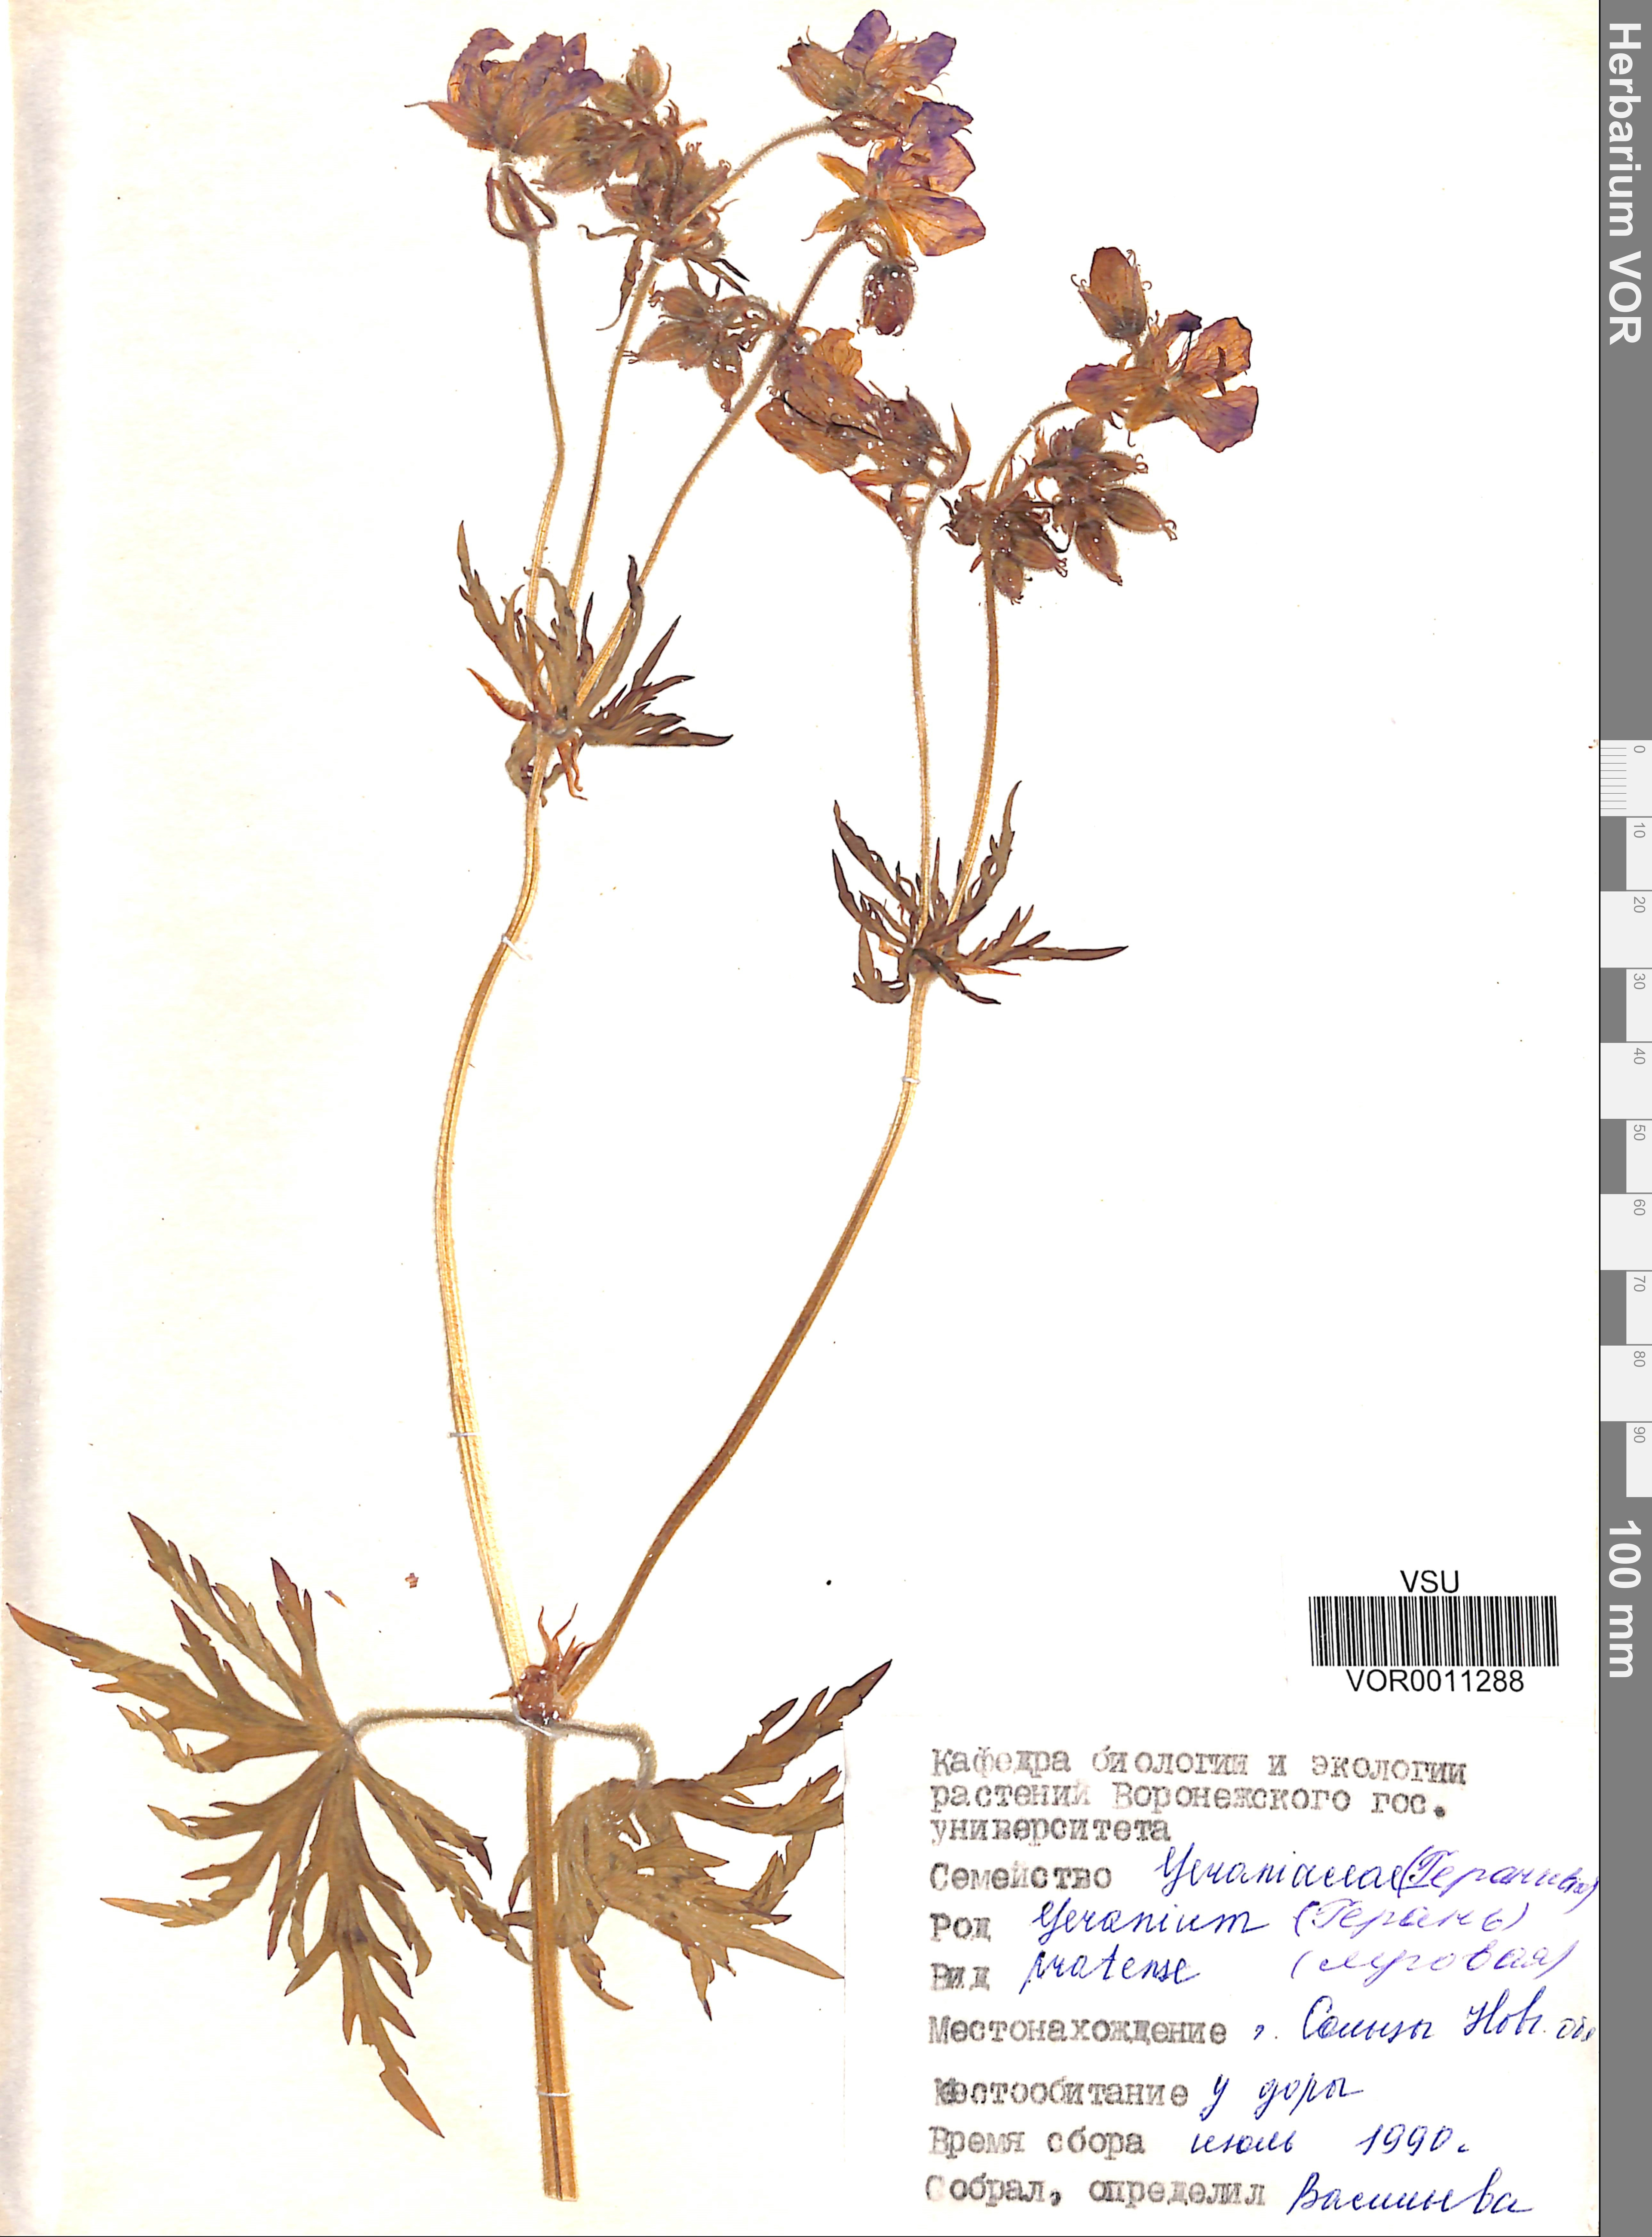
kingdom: Plantae
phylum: Tracheophyta
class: Magnoliopsida
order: Geraniales
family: Geraniaceae
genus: Geranium
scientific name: Geranium pratense
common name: Meadow crane's-bill
